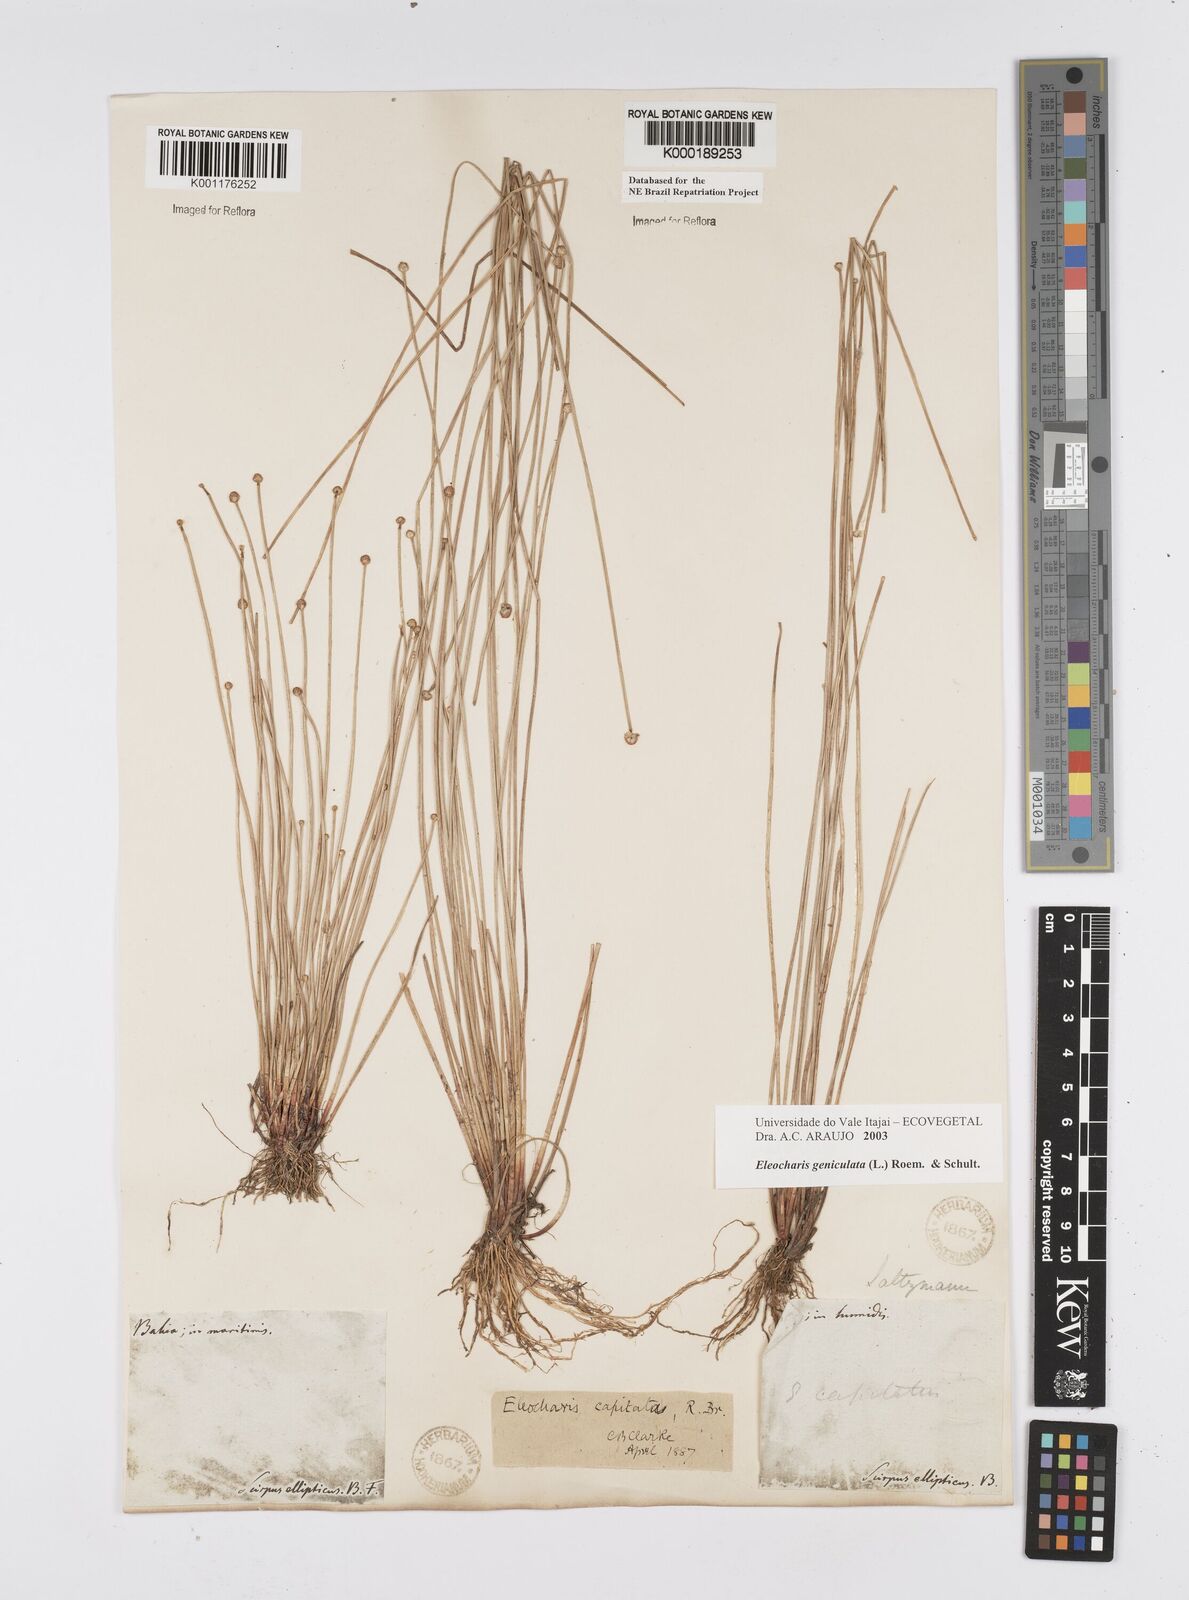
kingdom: Plantae
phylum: Tracheophyta
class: Liliopsida
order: Poales
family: Cyperaceae
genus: Eleocharis
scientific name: Eleocharis geniculata
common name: Canada spikesedge
